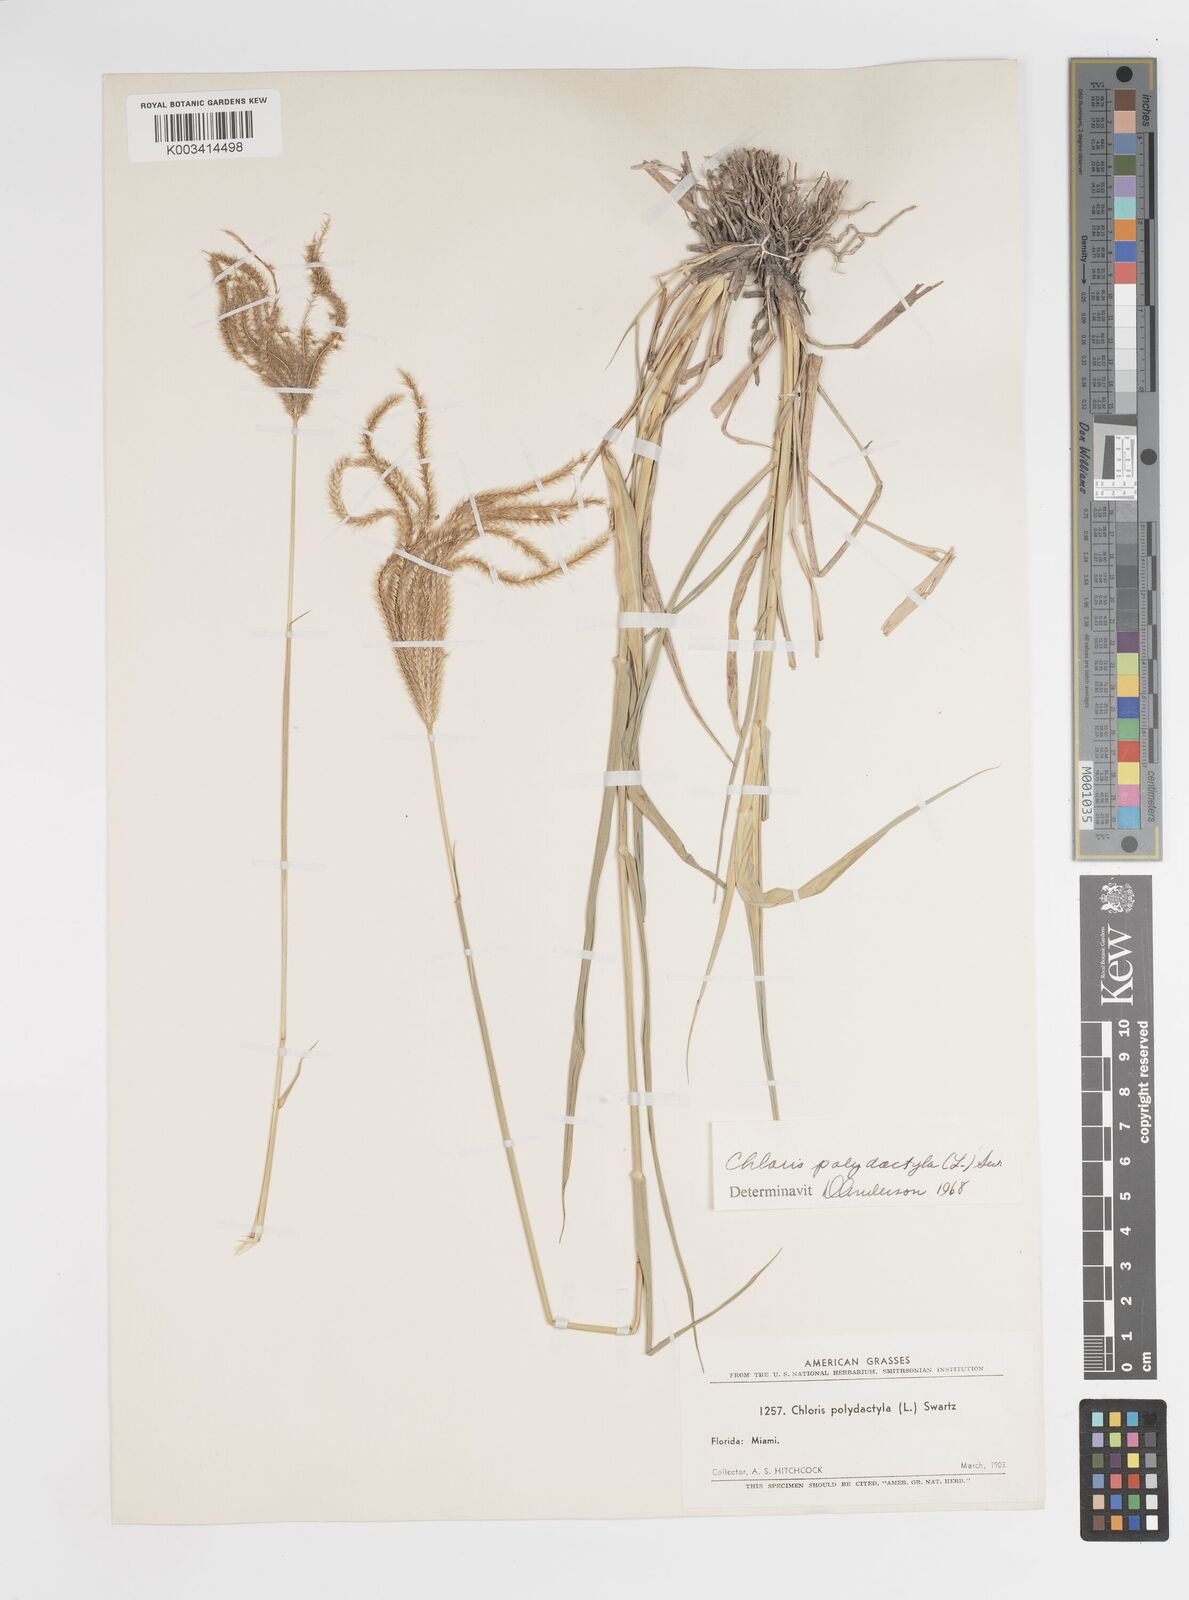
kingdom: Plantae
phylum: Tracheophyta
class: Liliopsida
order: Poales
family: Poaceae
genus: Stapfochloa
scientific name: Stapfochloa elata
